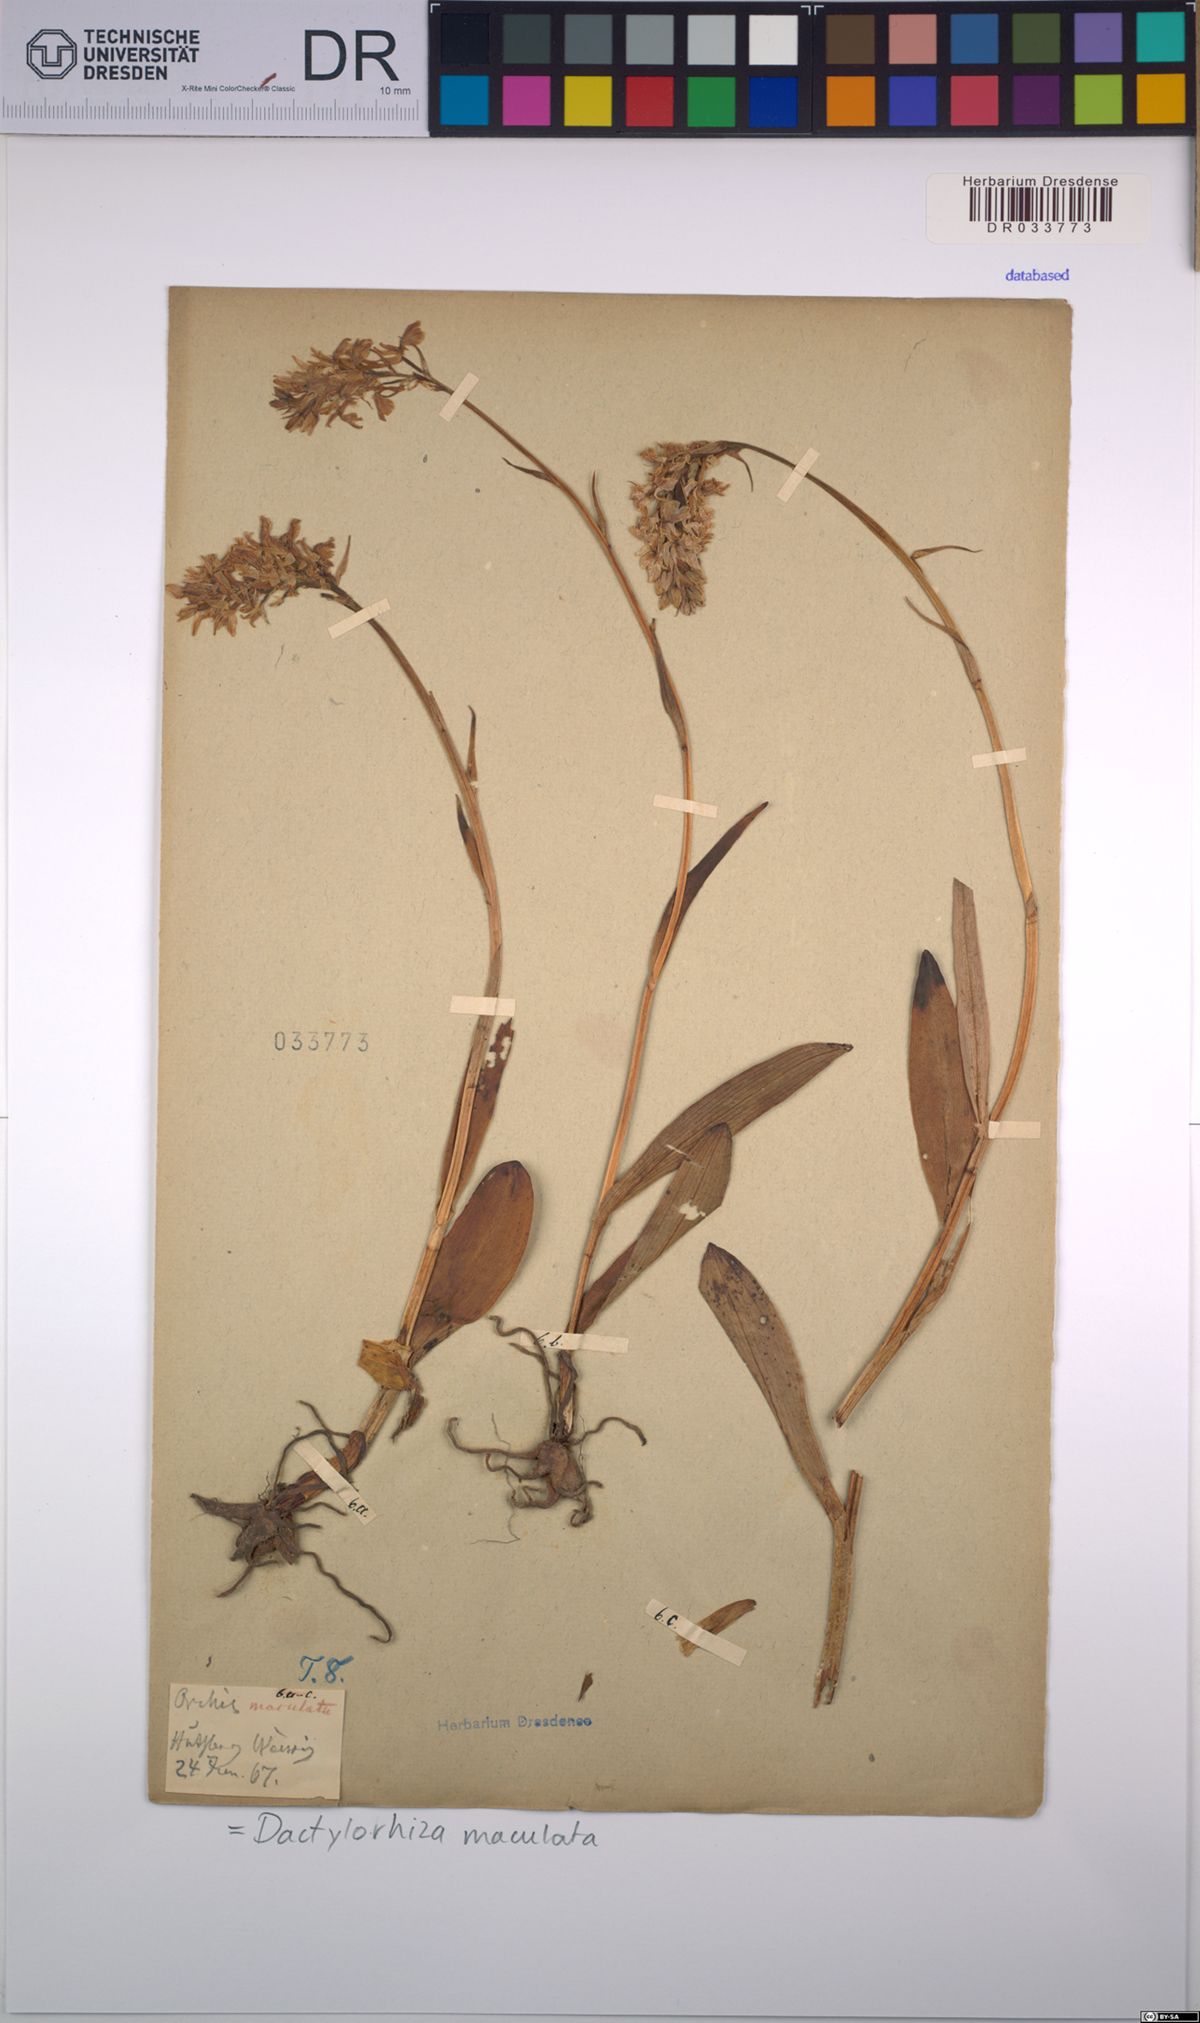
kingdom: Plantae
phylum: Tracheophyta
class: Liliopsida
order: Asparagales
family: Orchidaceae
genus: Dactylorhiza
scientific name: Dactylorhiza maculata
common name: Heath spotted-orchid
